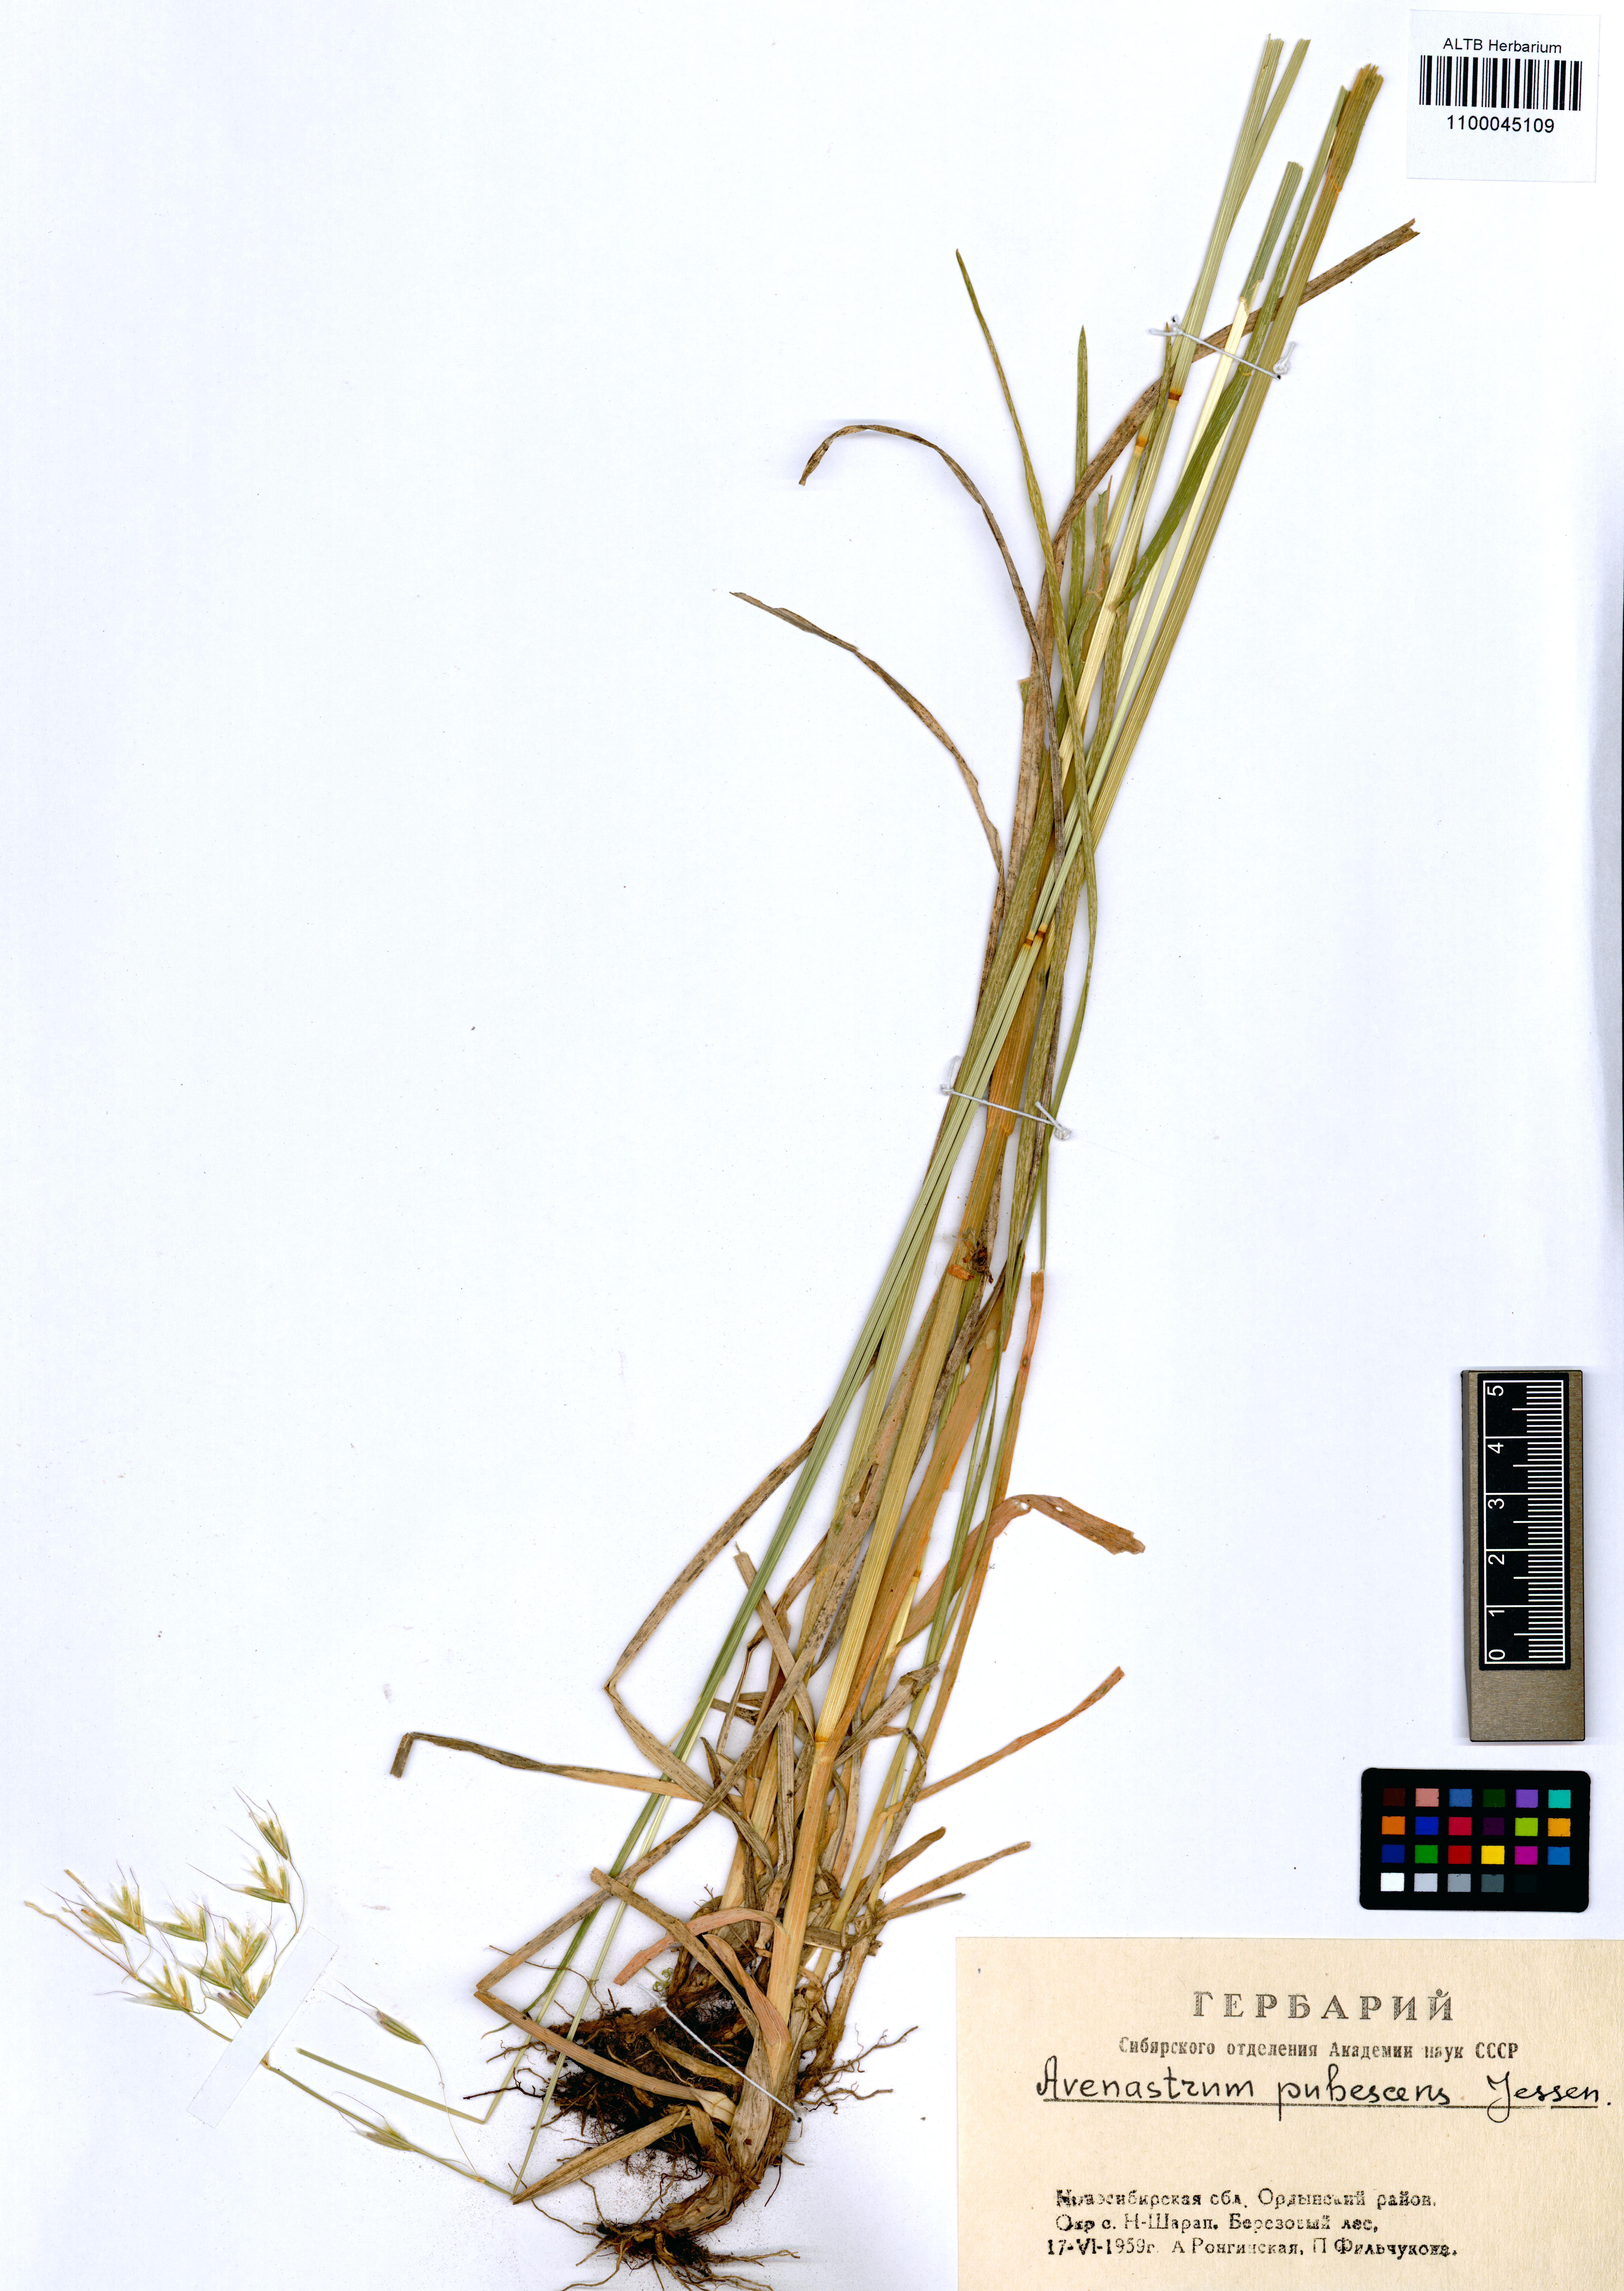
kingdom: Plantae
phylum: Tracheophyta
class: Liliopsida
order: Poales
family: Poaceae
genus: Avenula
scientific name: Avenula pubescens
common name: Downy alpine oatgrass
